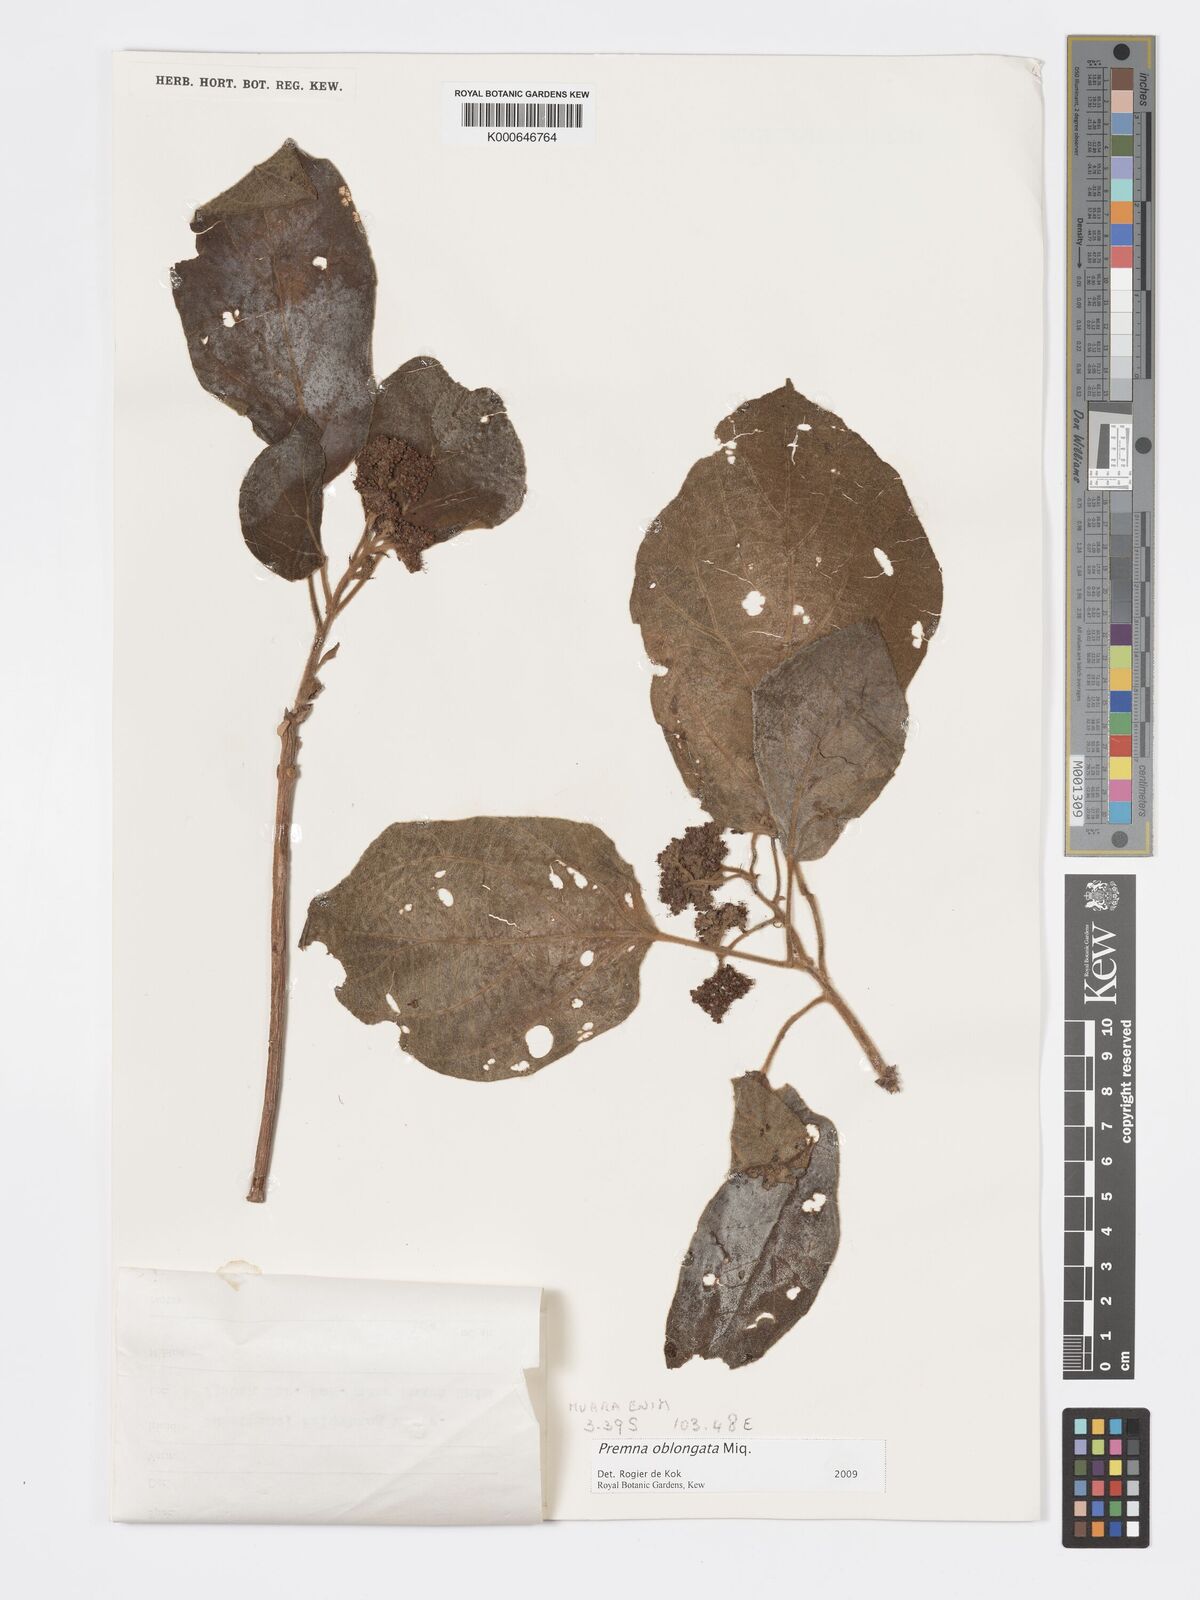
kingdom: Plantae
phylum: Tracheophyta
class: Magnoliopsida
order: Lamiales
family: Lamiaceae
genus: Premna
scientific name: Premna oblongata
